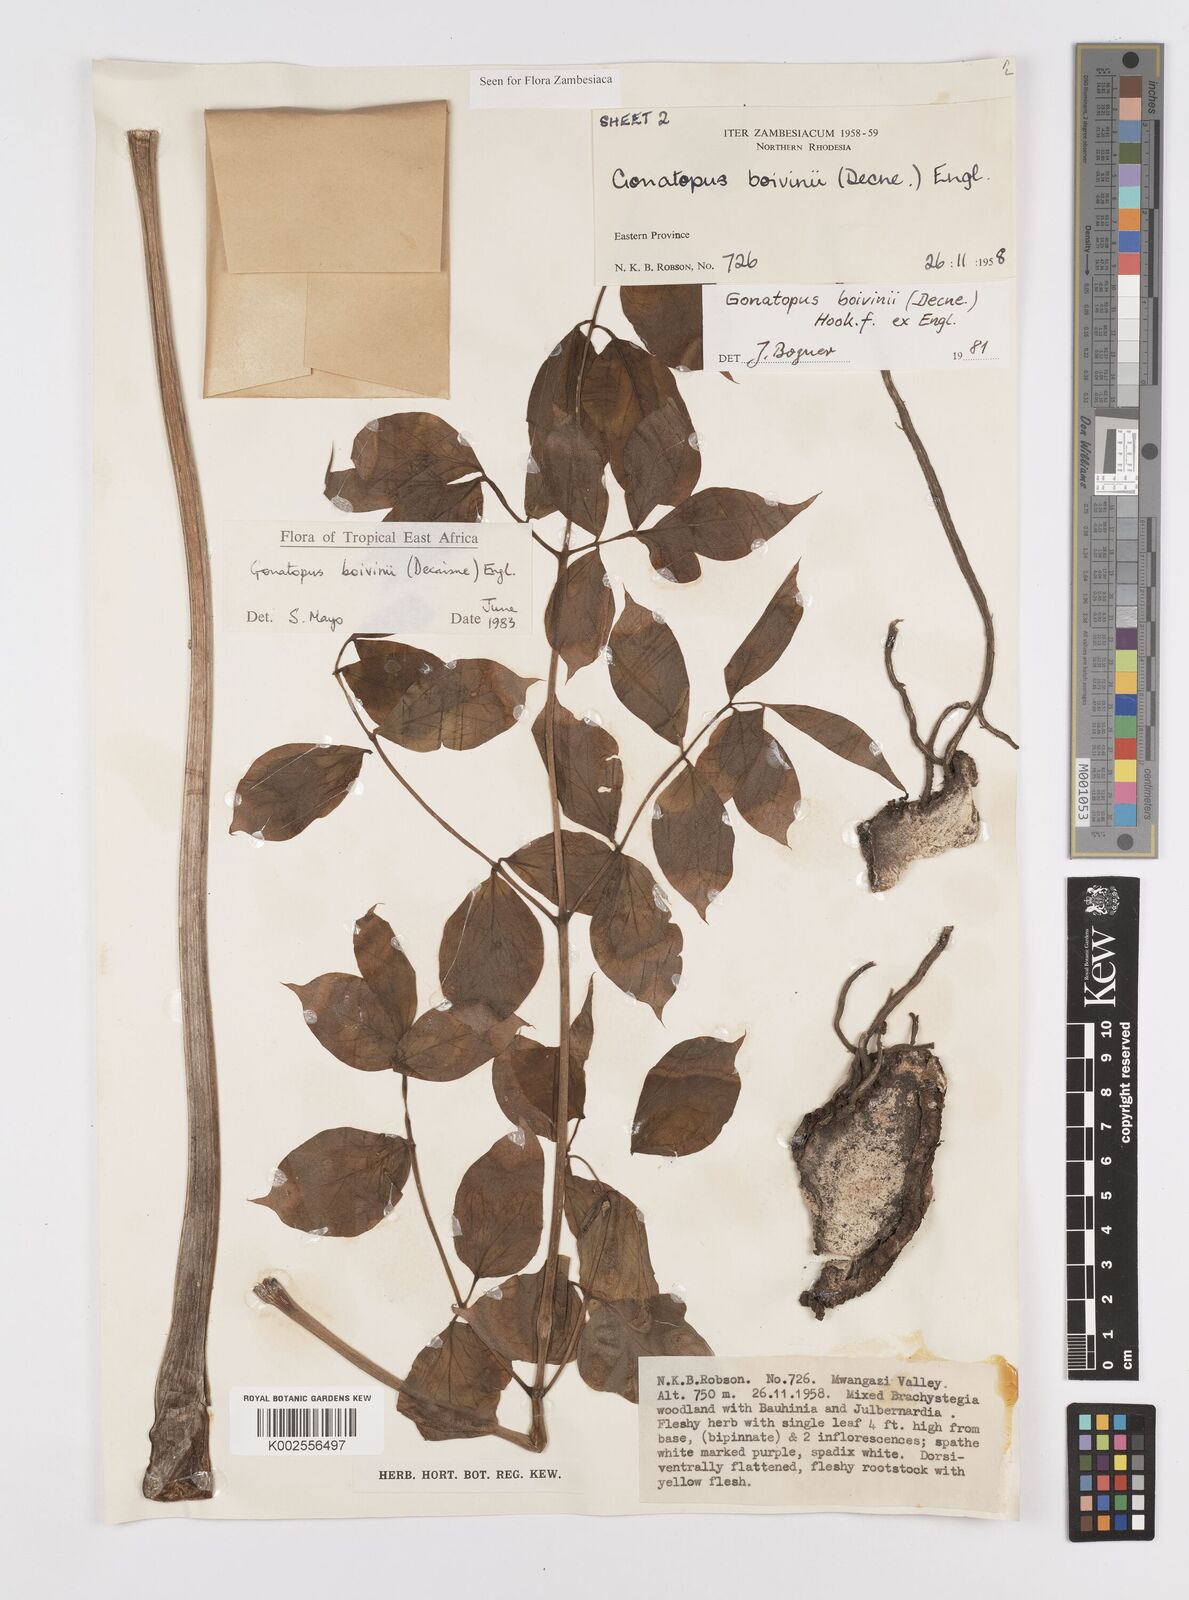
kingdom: Plantae
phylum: Tracheophyta
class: Liliopsida
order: Alismatales
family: Araceae
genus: Gonatopus
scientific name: Gonatopus boivinii
